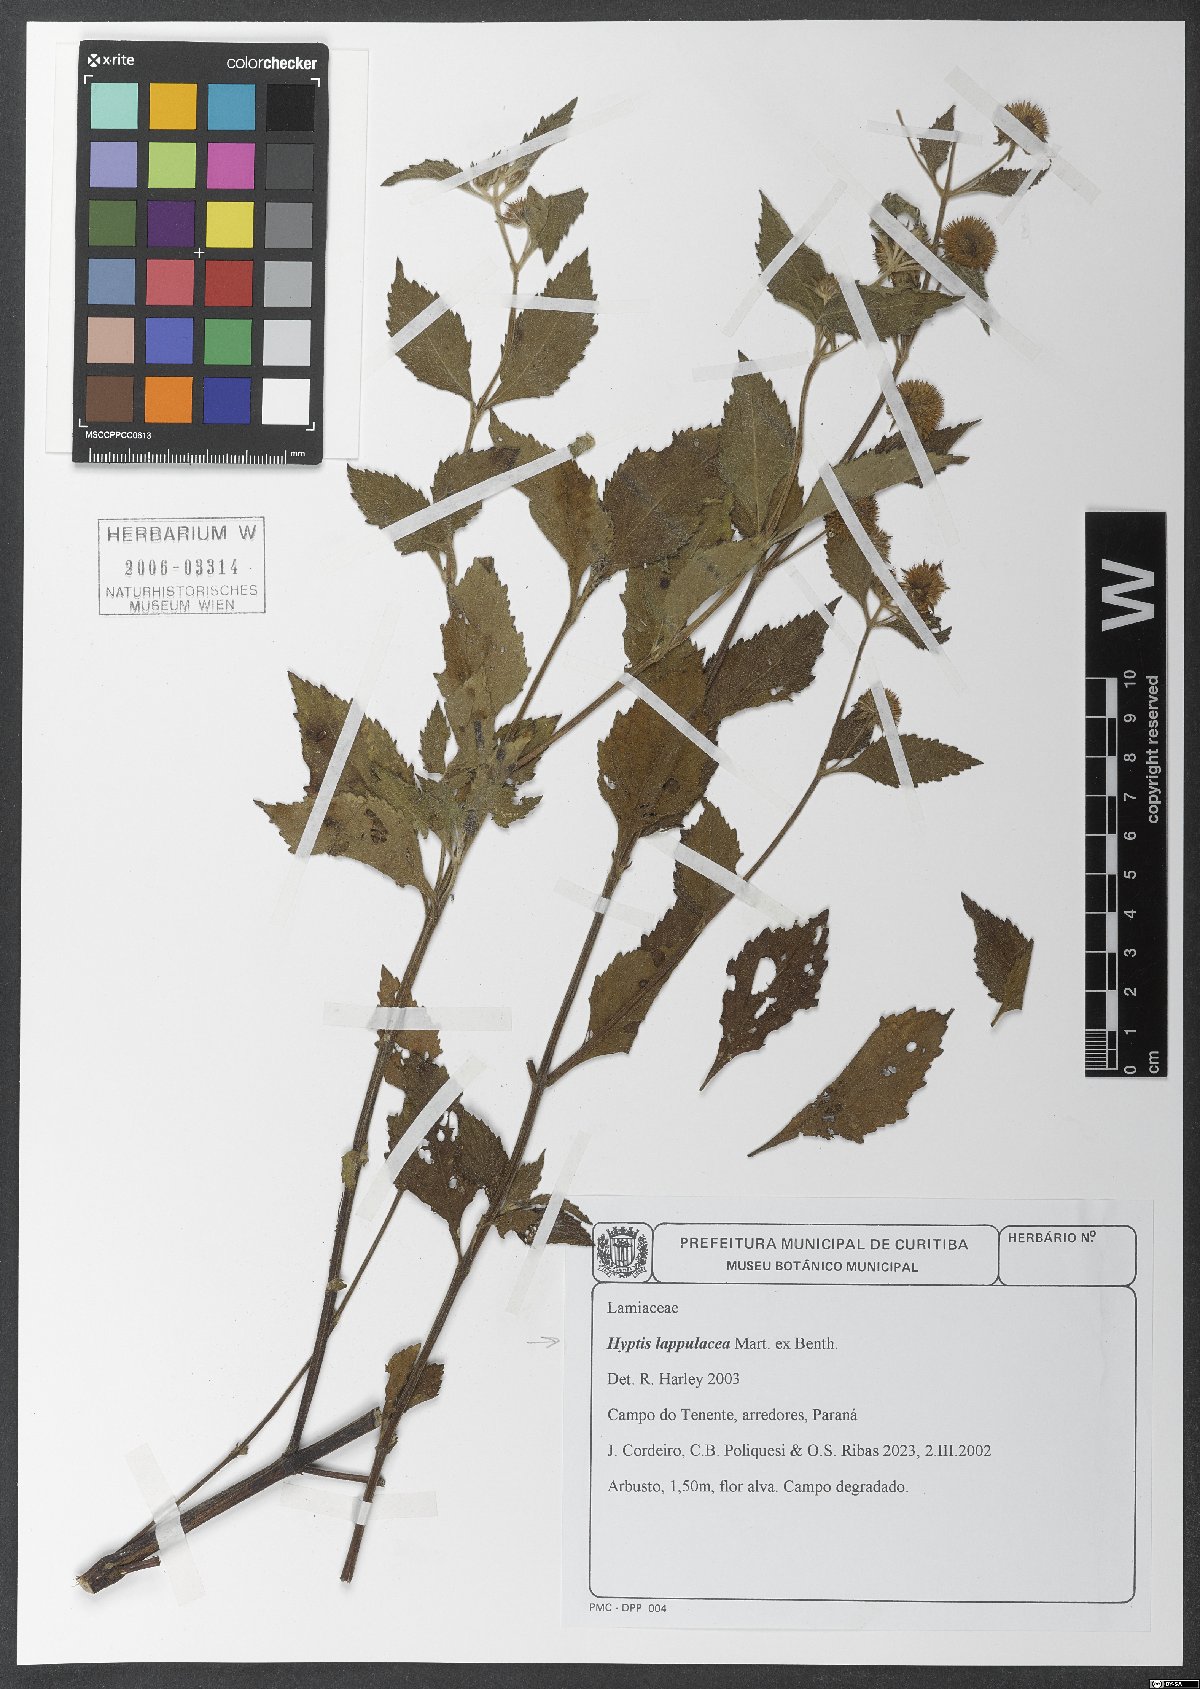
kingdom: Plantae
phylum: Tracheophyta
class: Magnoliopsida
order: Lamiales
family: Lamiaceae
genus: Hyptis
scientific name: Hyptis lappulacea
